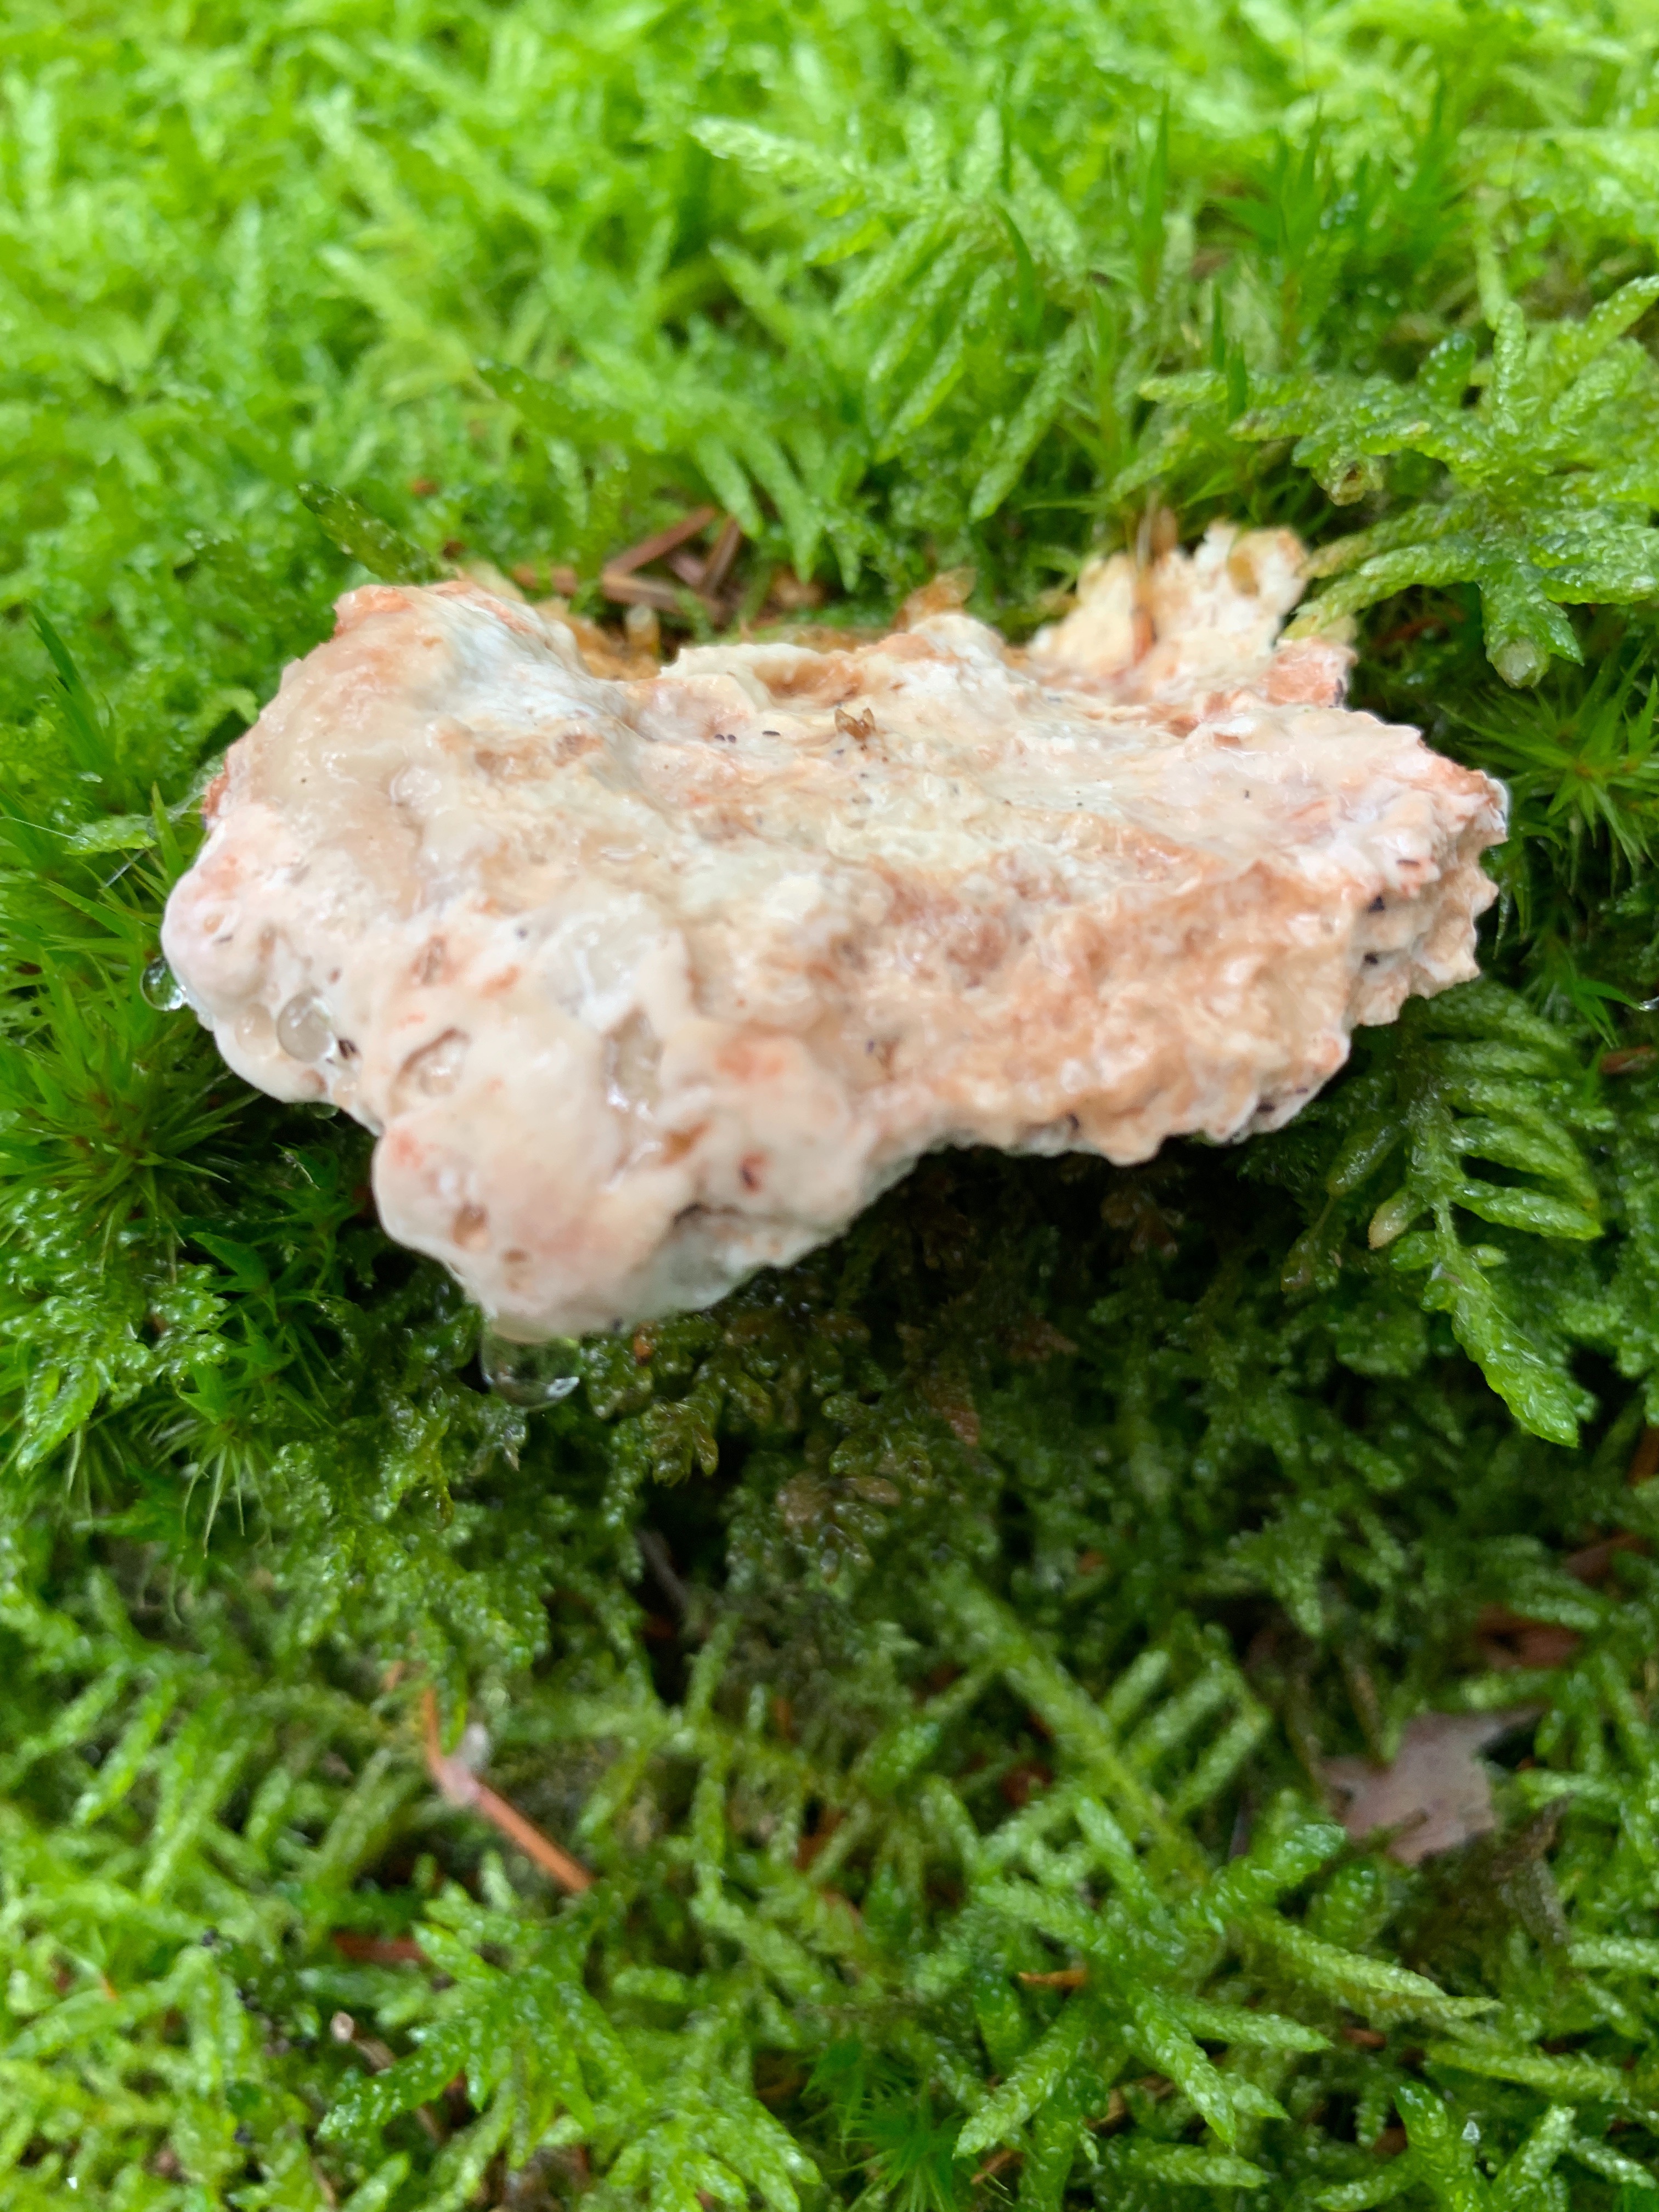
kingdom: Fungi
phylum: Basidiomycota
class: Agaricomycetes
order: Polyporales
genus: Calcipostia
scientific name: Calcipostia guttulata
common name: dråbe-kødporesvamp
